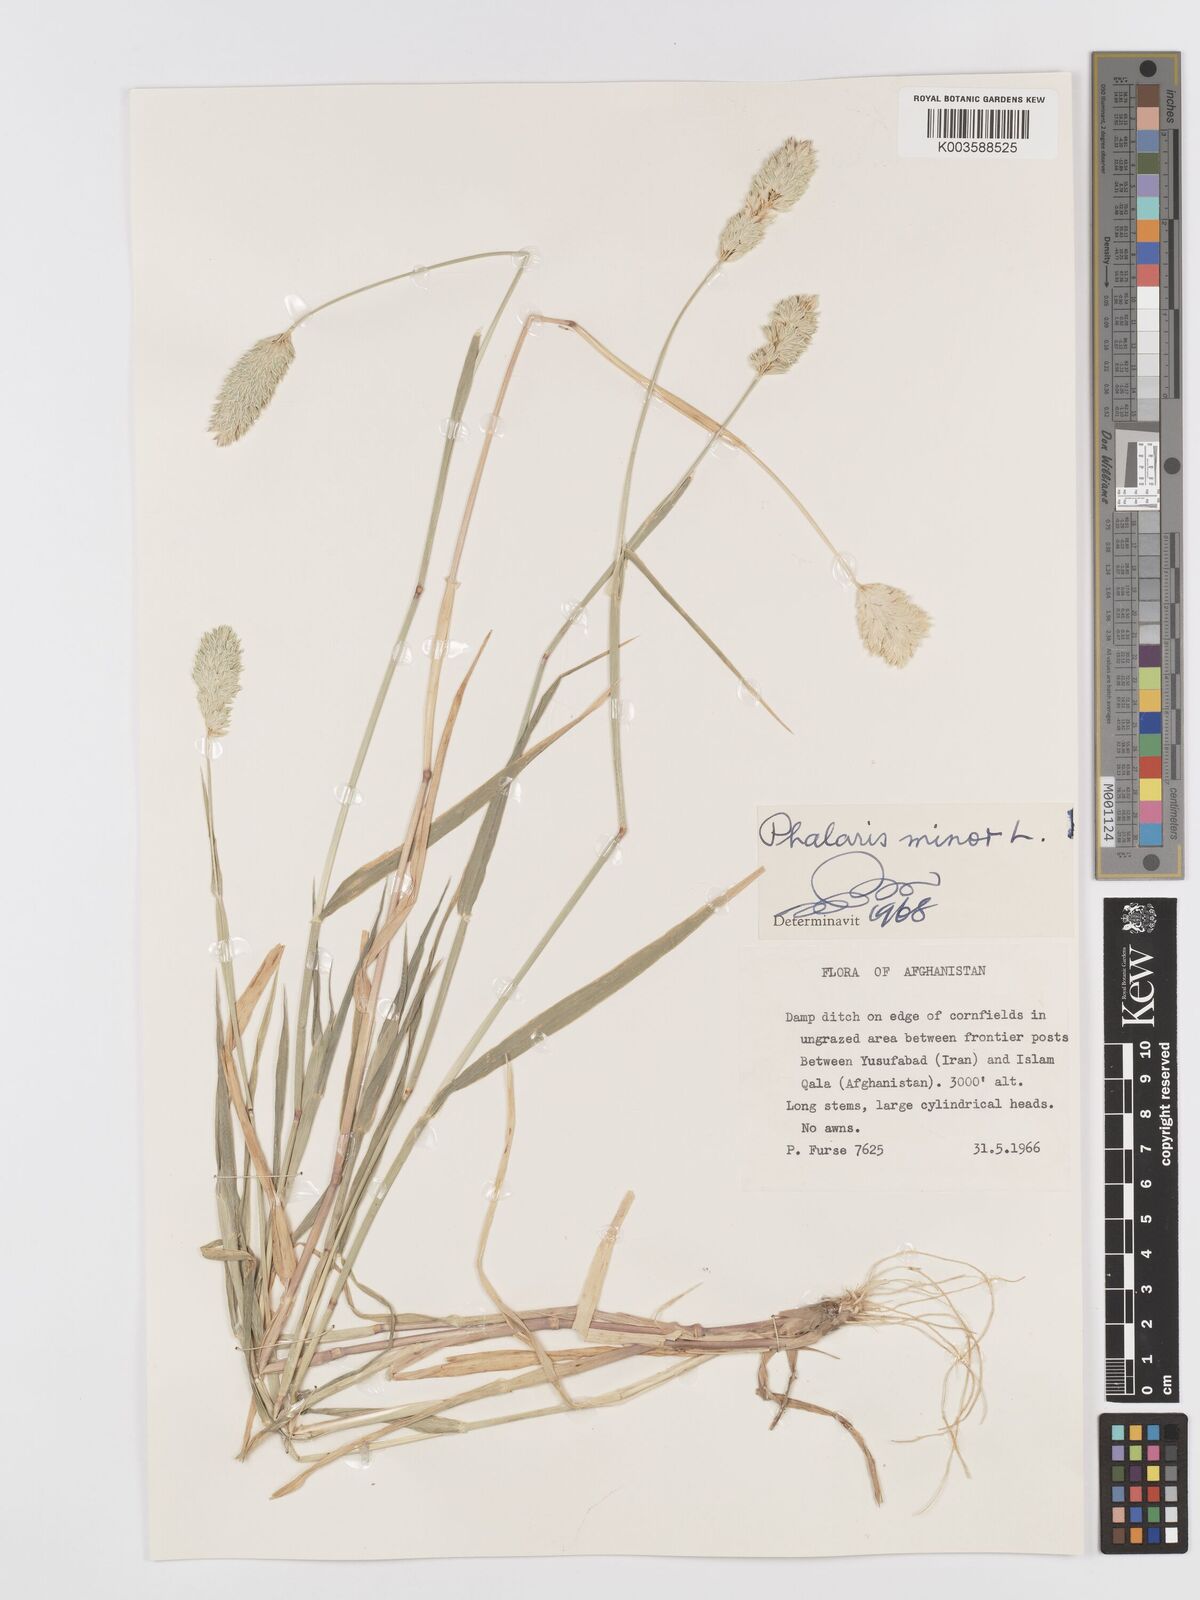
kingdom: Plantae
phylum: Tracheophyta
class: Liliopsida
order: Poales
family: Poaceae
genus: Phalaris
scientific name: Phalaris minor
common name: Littleseed canarygrass
